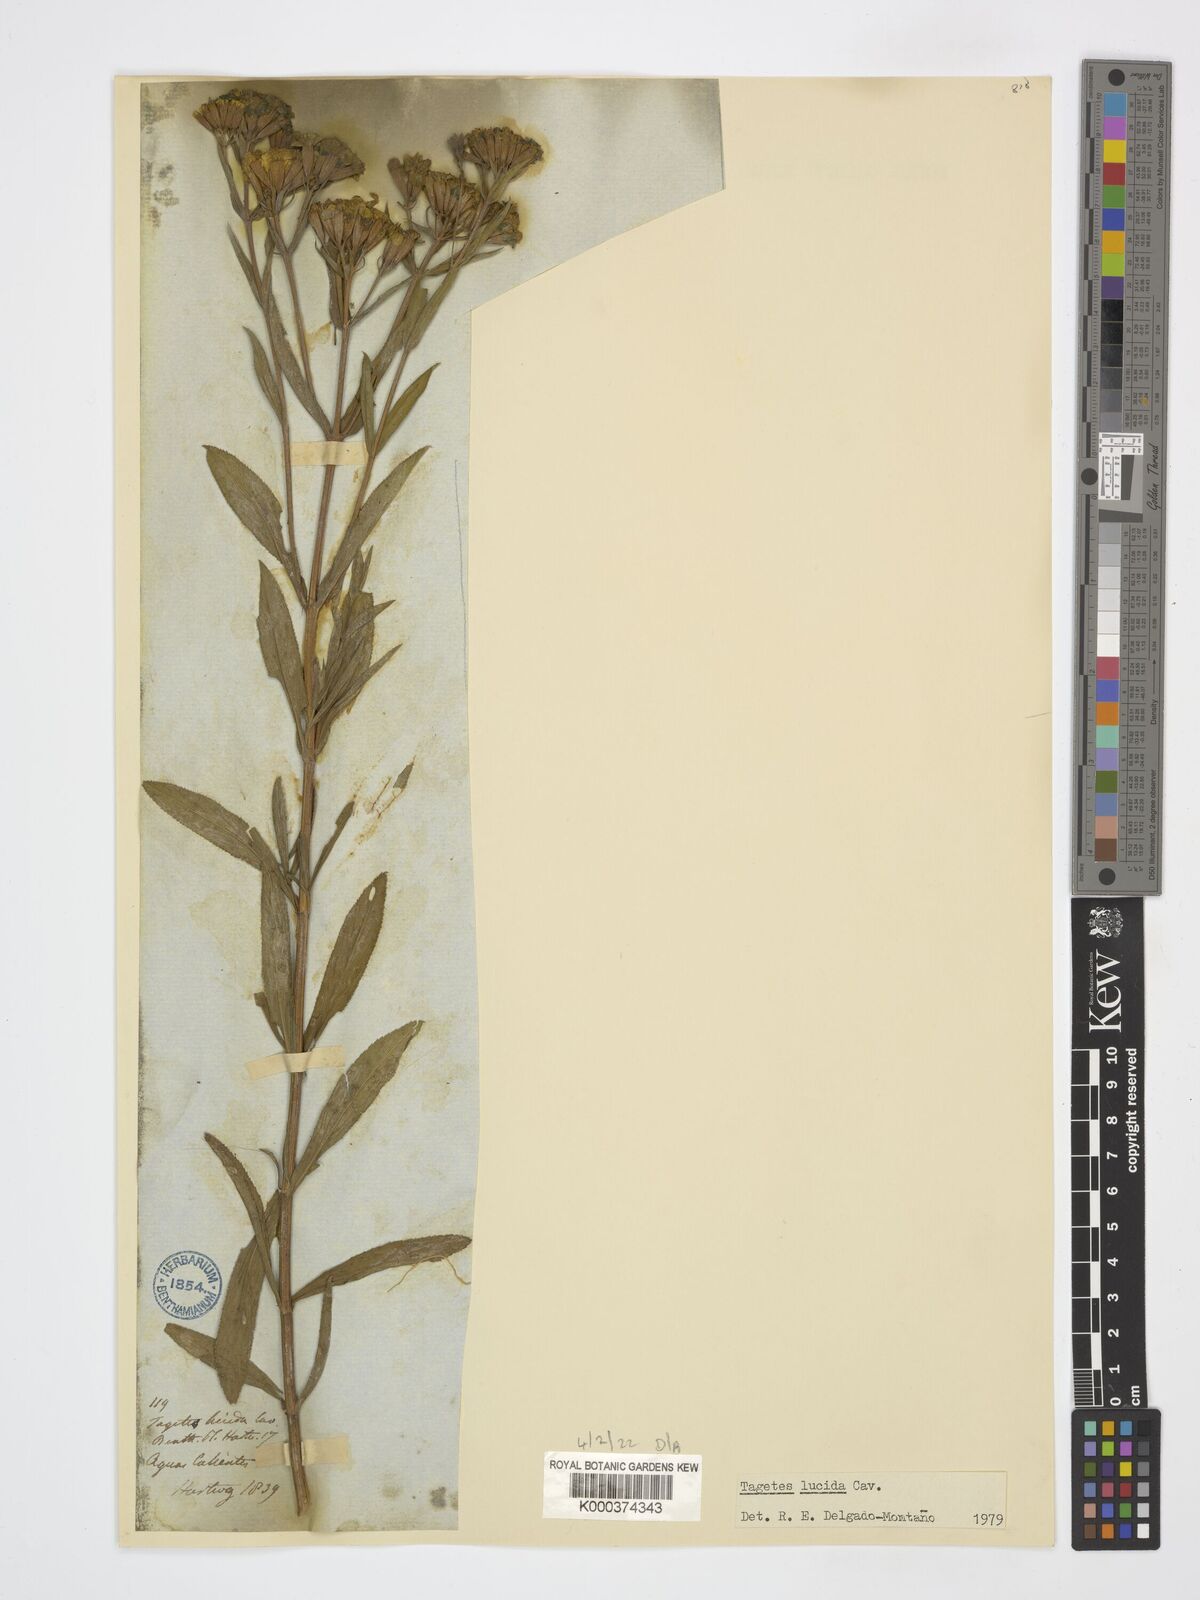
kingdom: Plantae
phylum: Tracheophyta
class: Magnoliopsida
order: Asterales
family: Asteraceae
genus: Tagetes
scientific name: Tagetes lucida
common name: Sweetscented marigold
